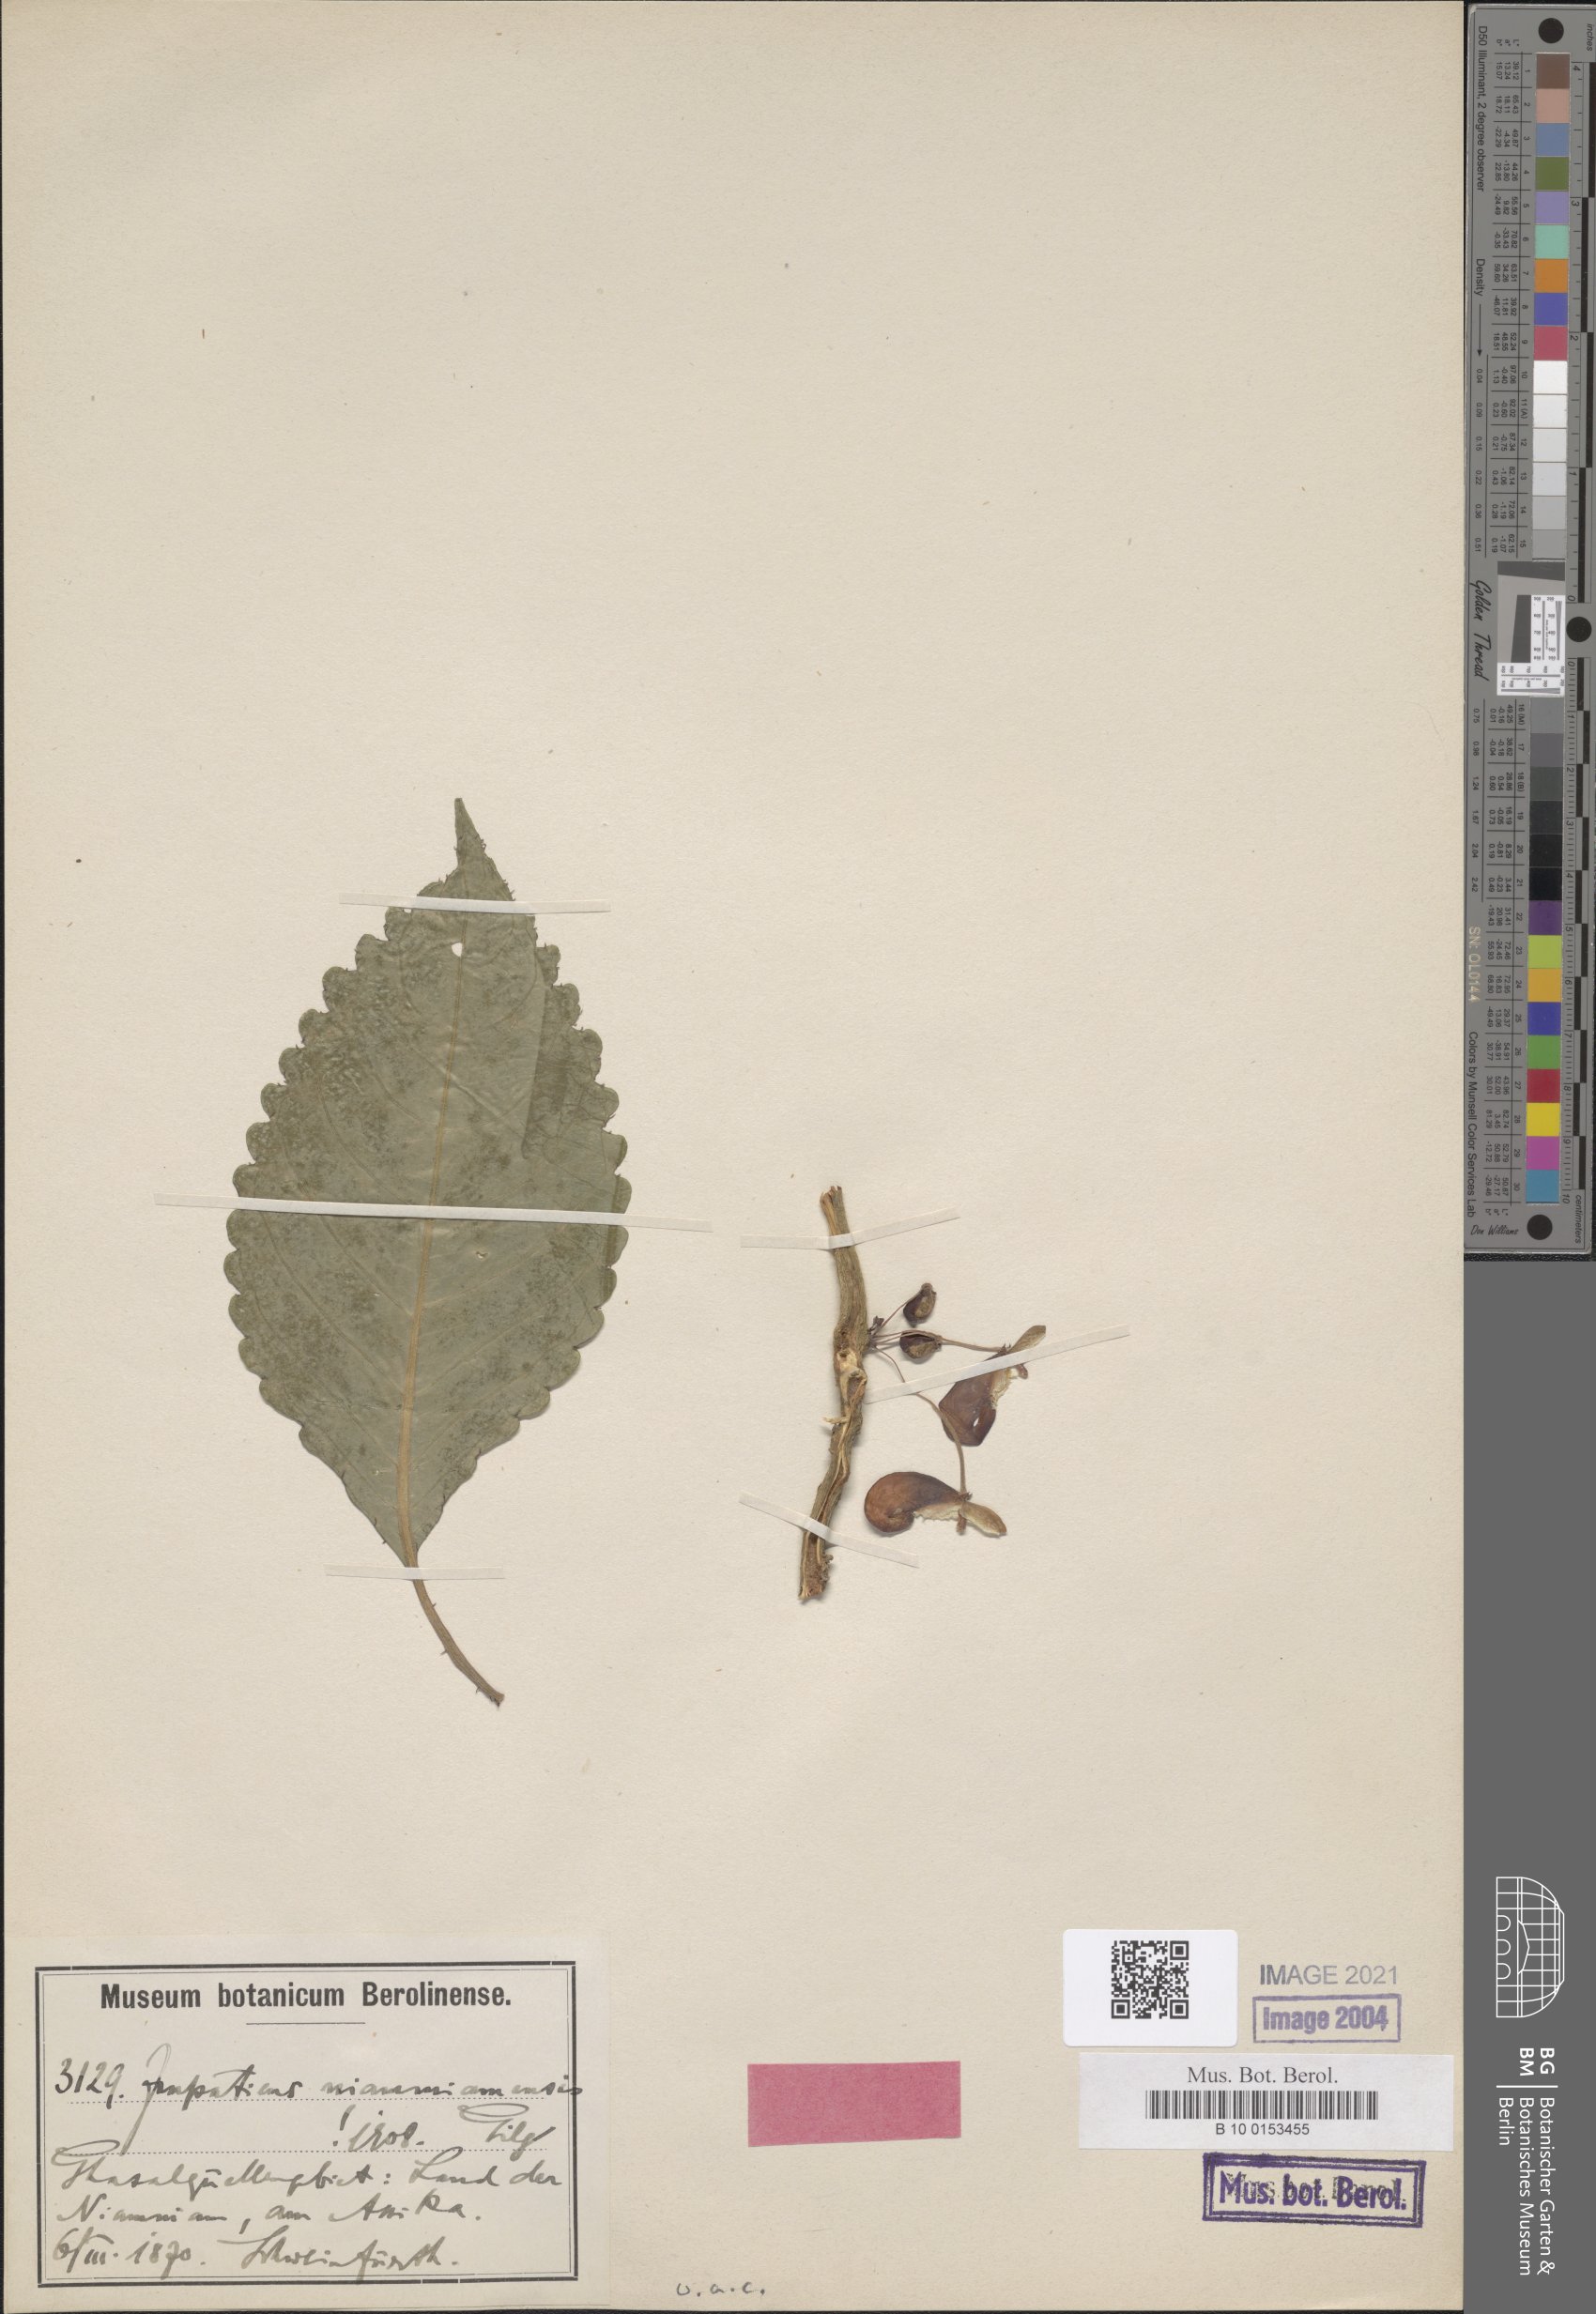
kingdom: Plantae
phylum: Tracheophyta
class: Magnoliopsida
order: Ericales
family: Balsaminaceae
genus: Impatiens
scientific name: Impatiens niamniamensis
